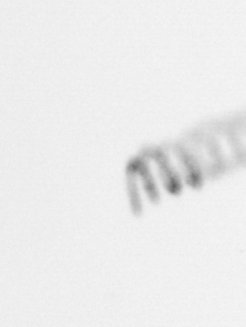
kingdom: Chromista
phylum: Ochrophyta
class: Bacillariophyceae
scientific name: Bacillariophyceae
